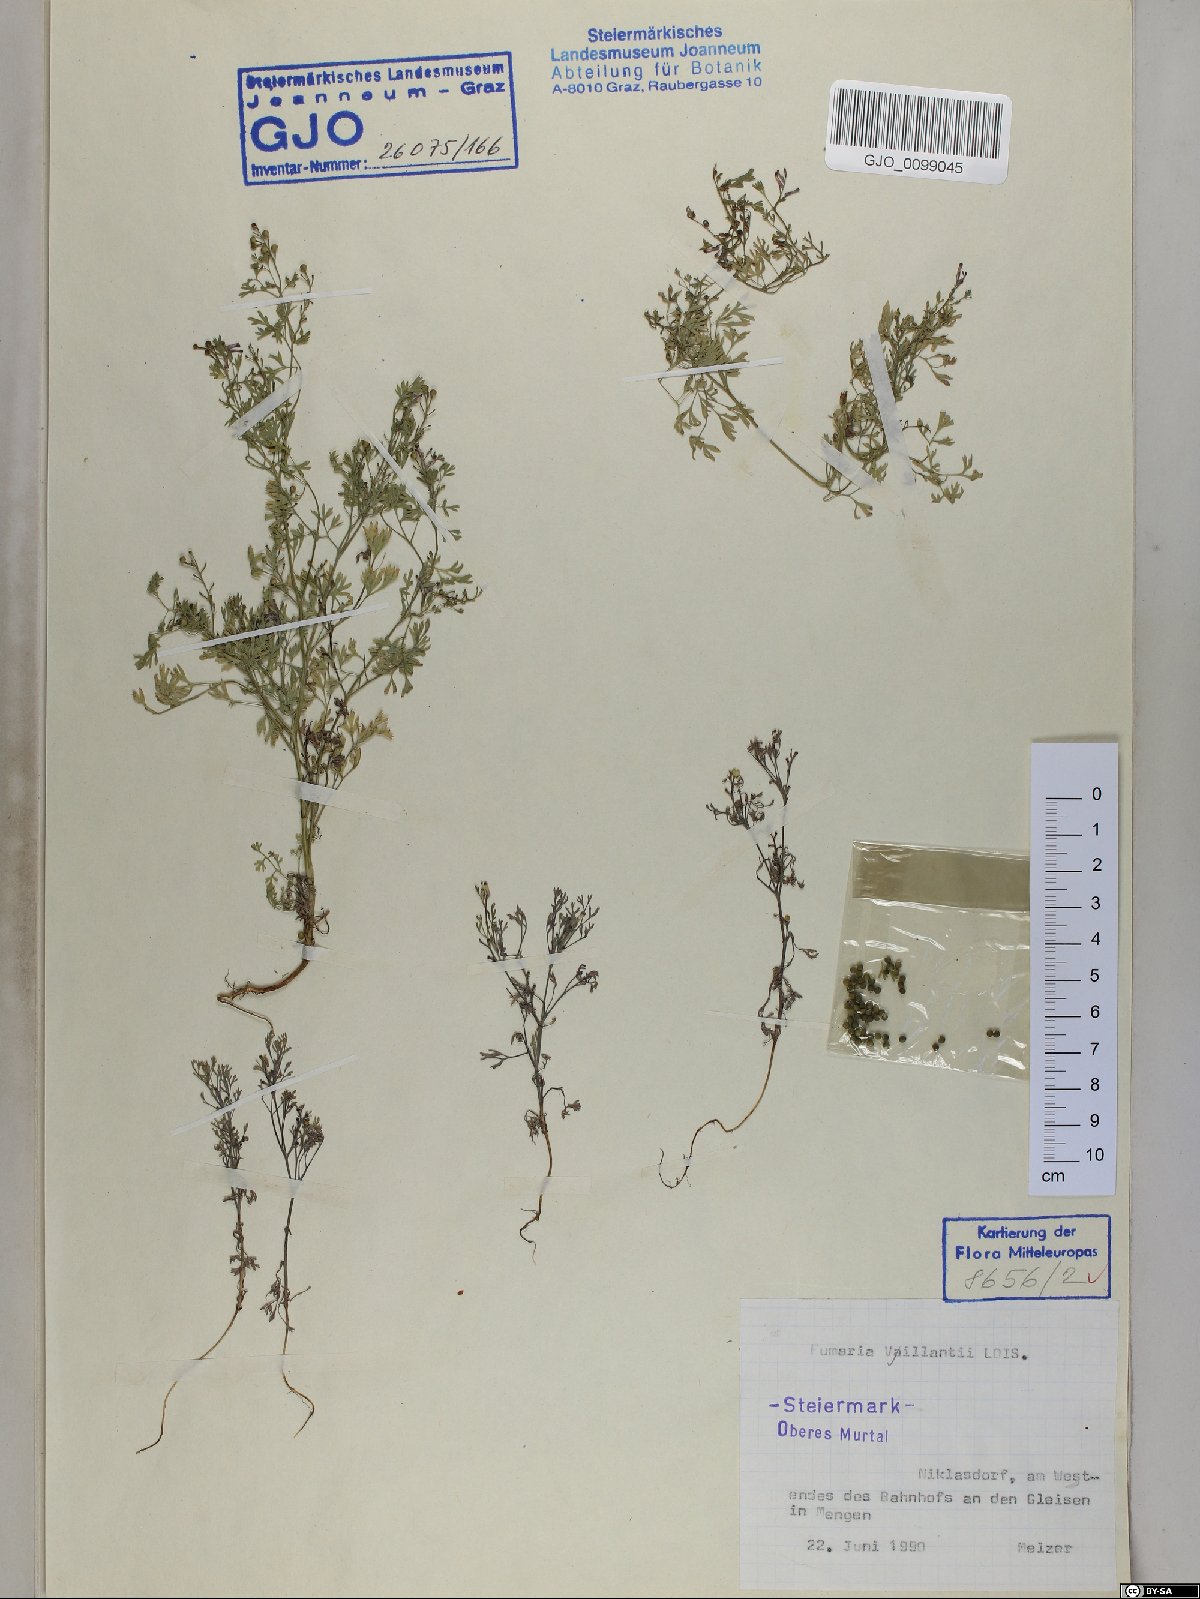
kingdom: Plantae
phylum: Tracheophyta
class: Magnoliopsida
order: Ranunculales
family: Papaveraceae
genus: Fumaria
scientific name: Fumaria vaillantii
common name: Few-flowered fumitory
